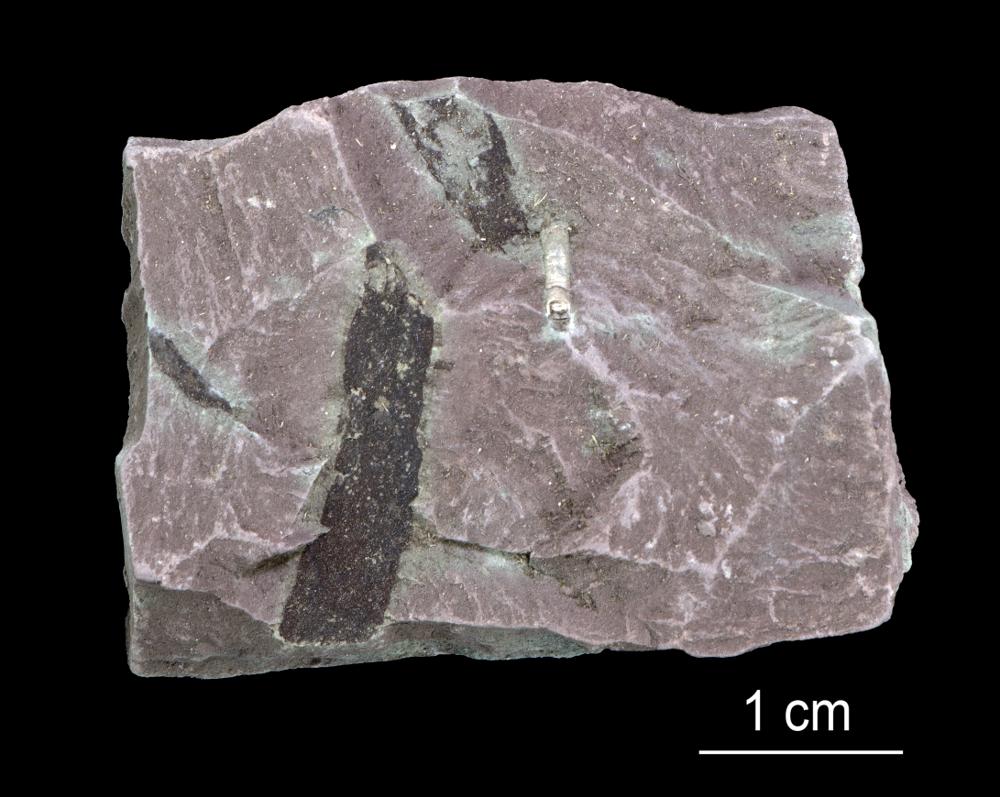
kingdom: Chromista
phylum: Foraminifera
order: Astrorhizida
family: Hyperamminidae
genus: Platysolenites
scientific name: Platysolenites antiquissimus
